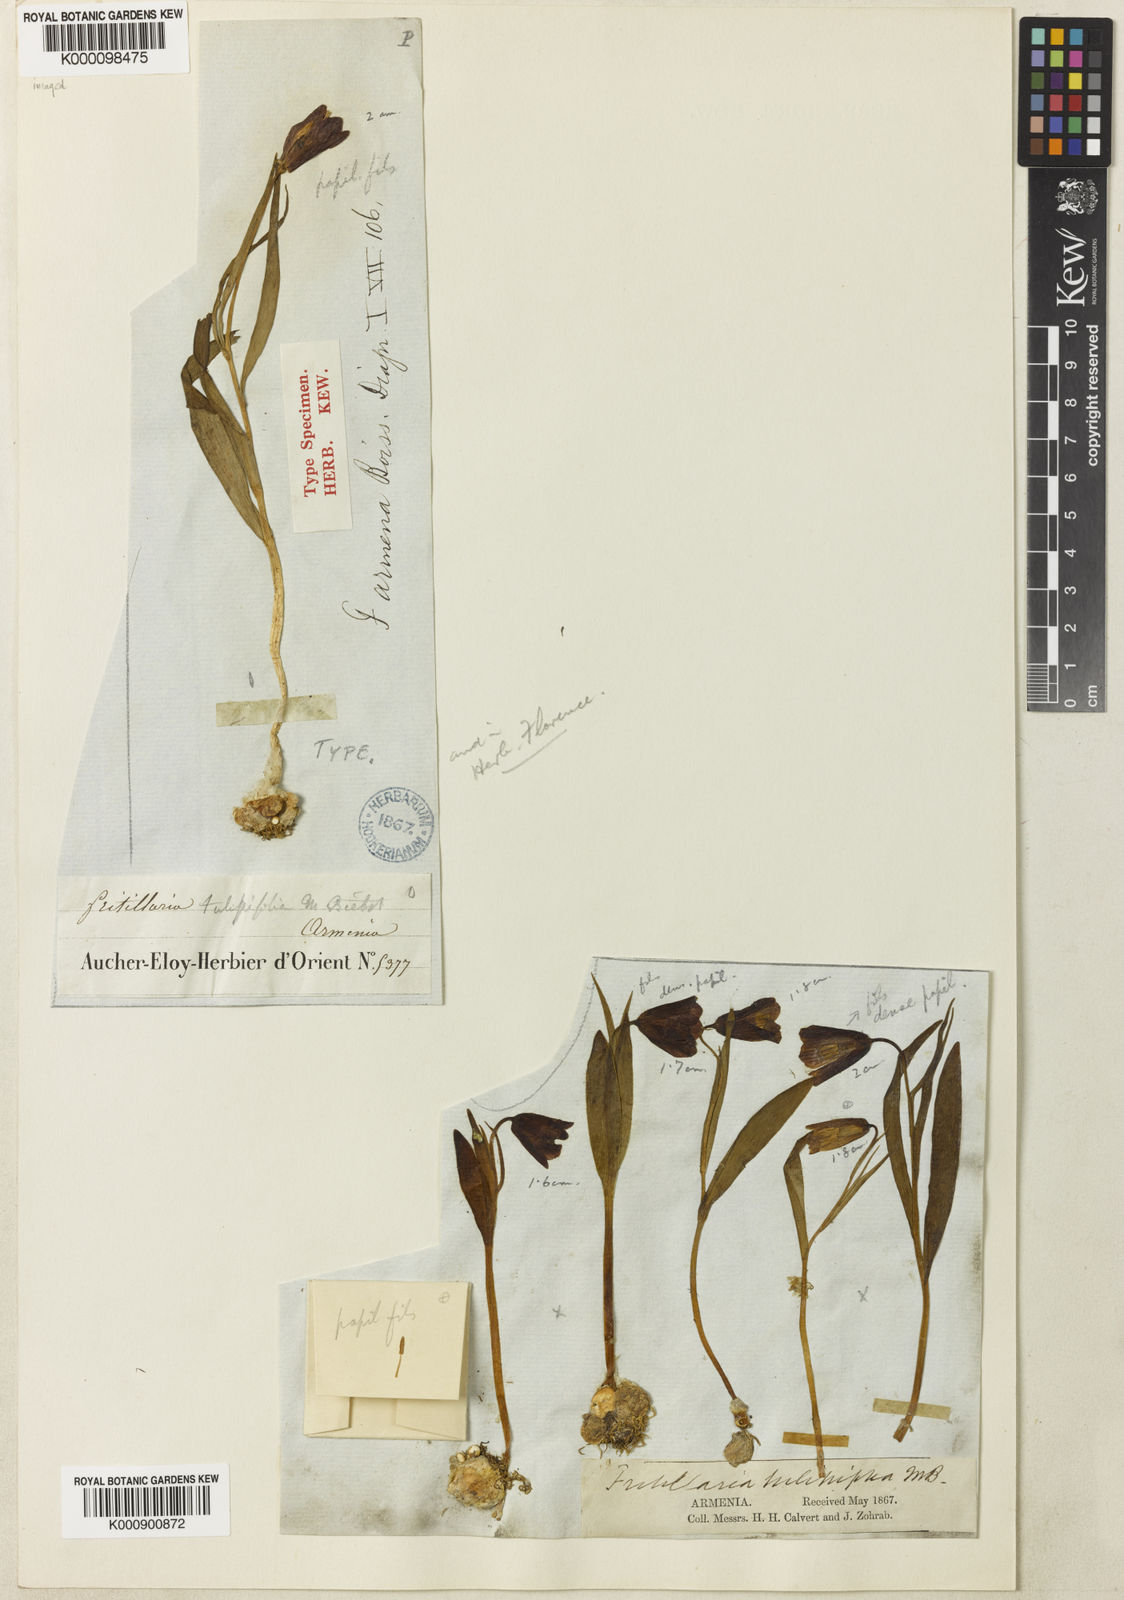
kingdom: Plantae
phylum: Tracheophyta
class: Liliopsida
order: Liliales
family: Liliaceae
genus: Fritillaria
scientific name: Fritillaria armena
